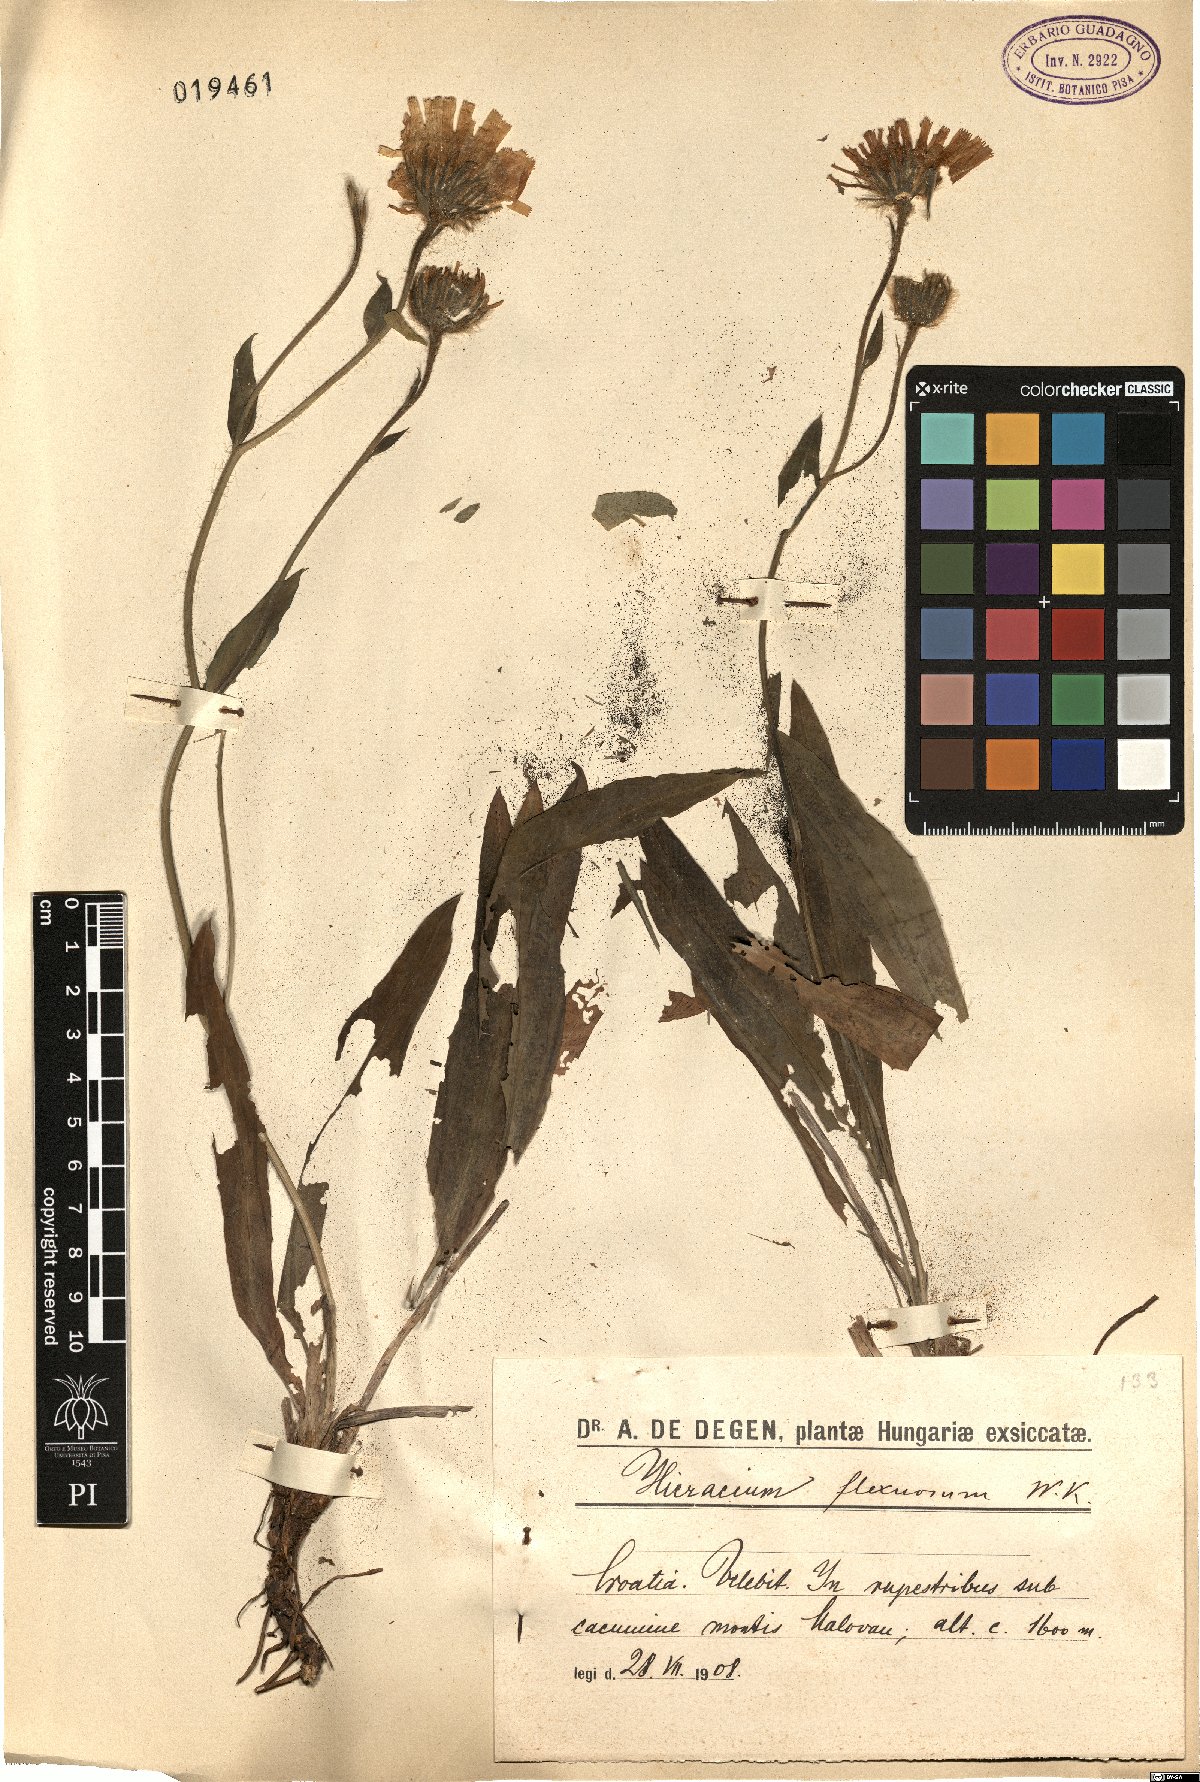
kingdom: Plantae
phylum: Tracheophyta
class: Magnoliopsida
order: Asterales
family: Asteraceae
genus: Hieracium
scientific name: Hieracium scorzonerifolium
